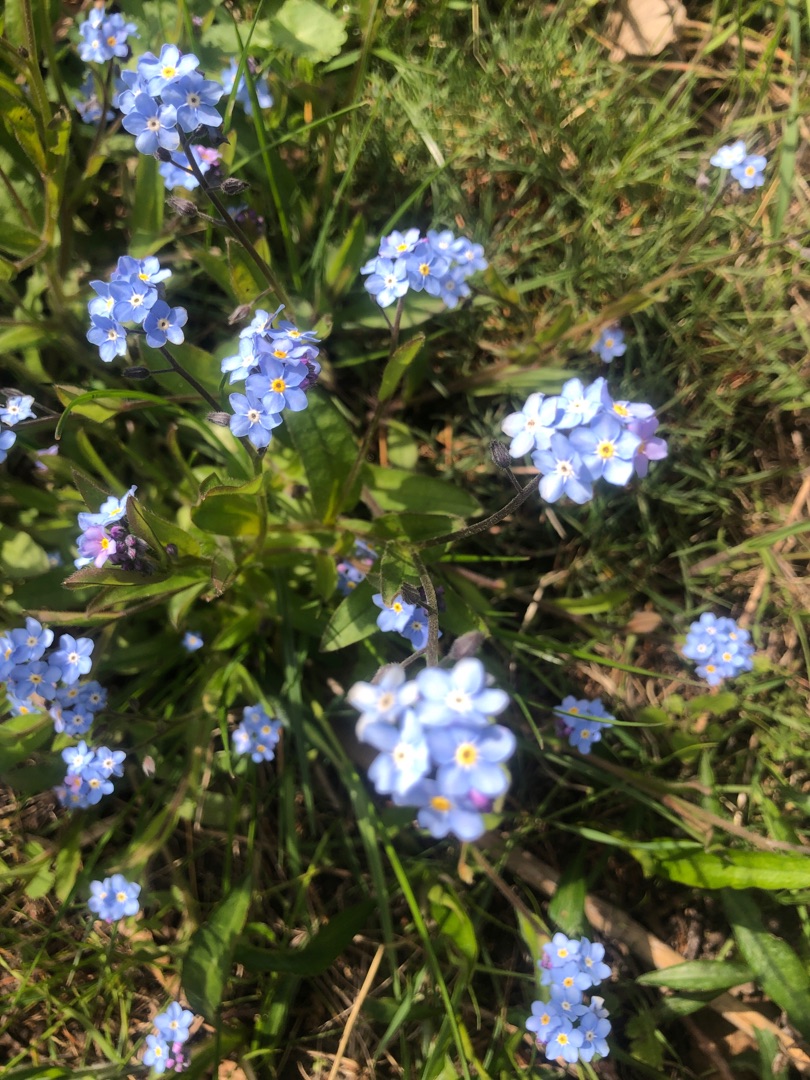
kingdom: Plantae
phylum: Tracheophyta
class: Magnoliopsida
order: Boraginales
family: Boraginaceae
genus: Myosotis
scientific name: Myosotis sylvatica
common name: Skov-forglemmigej
